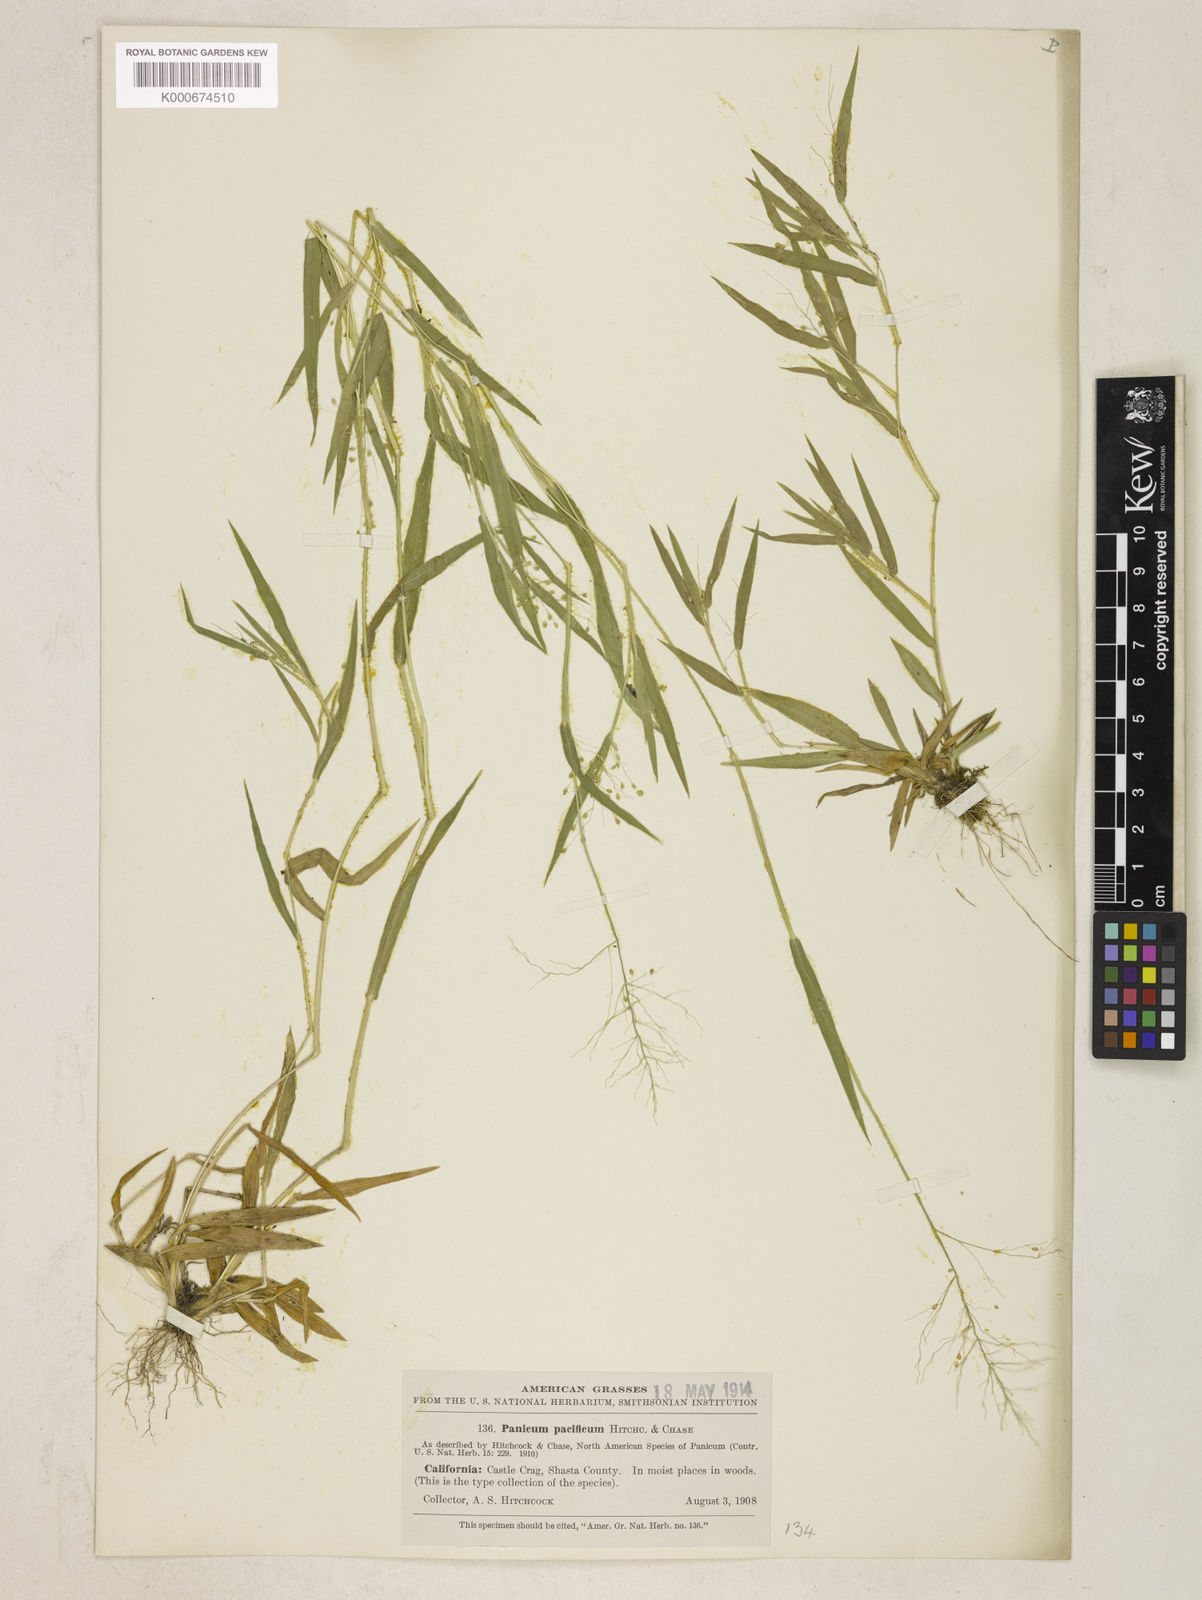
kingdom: Plantae
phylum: Tracheophyta
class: Liliopsida
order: Poales
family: Poaceae
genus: Dichanthelium
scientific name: Dichanthelium implicatum
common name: Slender-stemmed panicgrass
